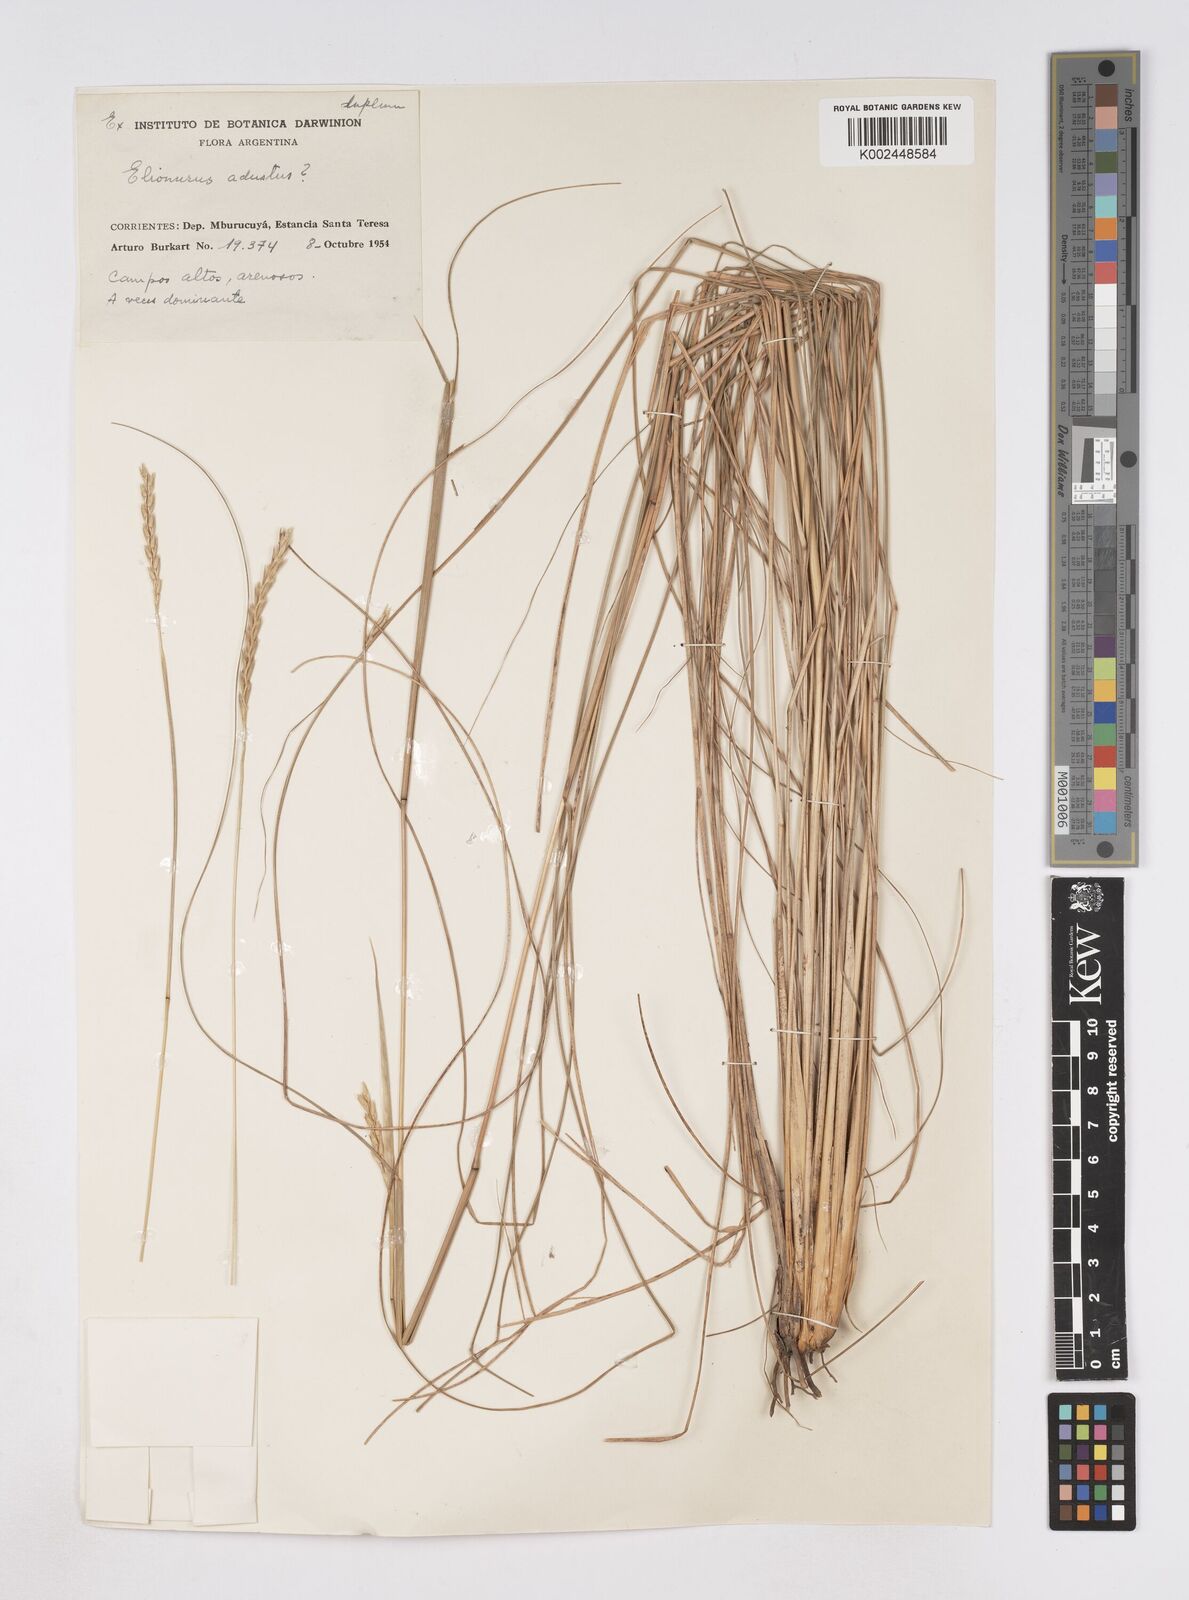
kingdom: Plantae
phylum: Tracheophyta
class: Liliopsida
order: Poales
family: Poaceae
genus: Elionurus
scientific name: Elionurus muticus
